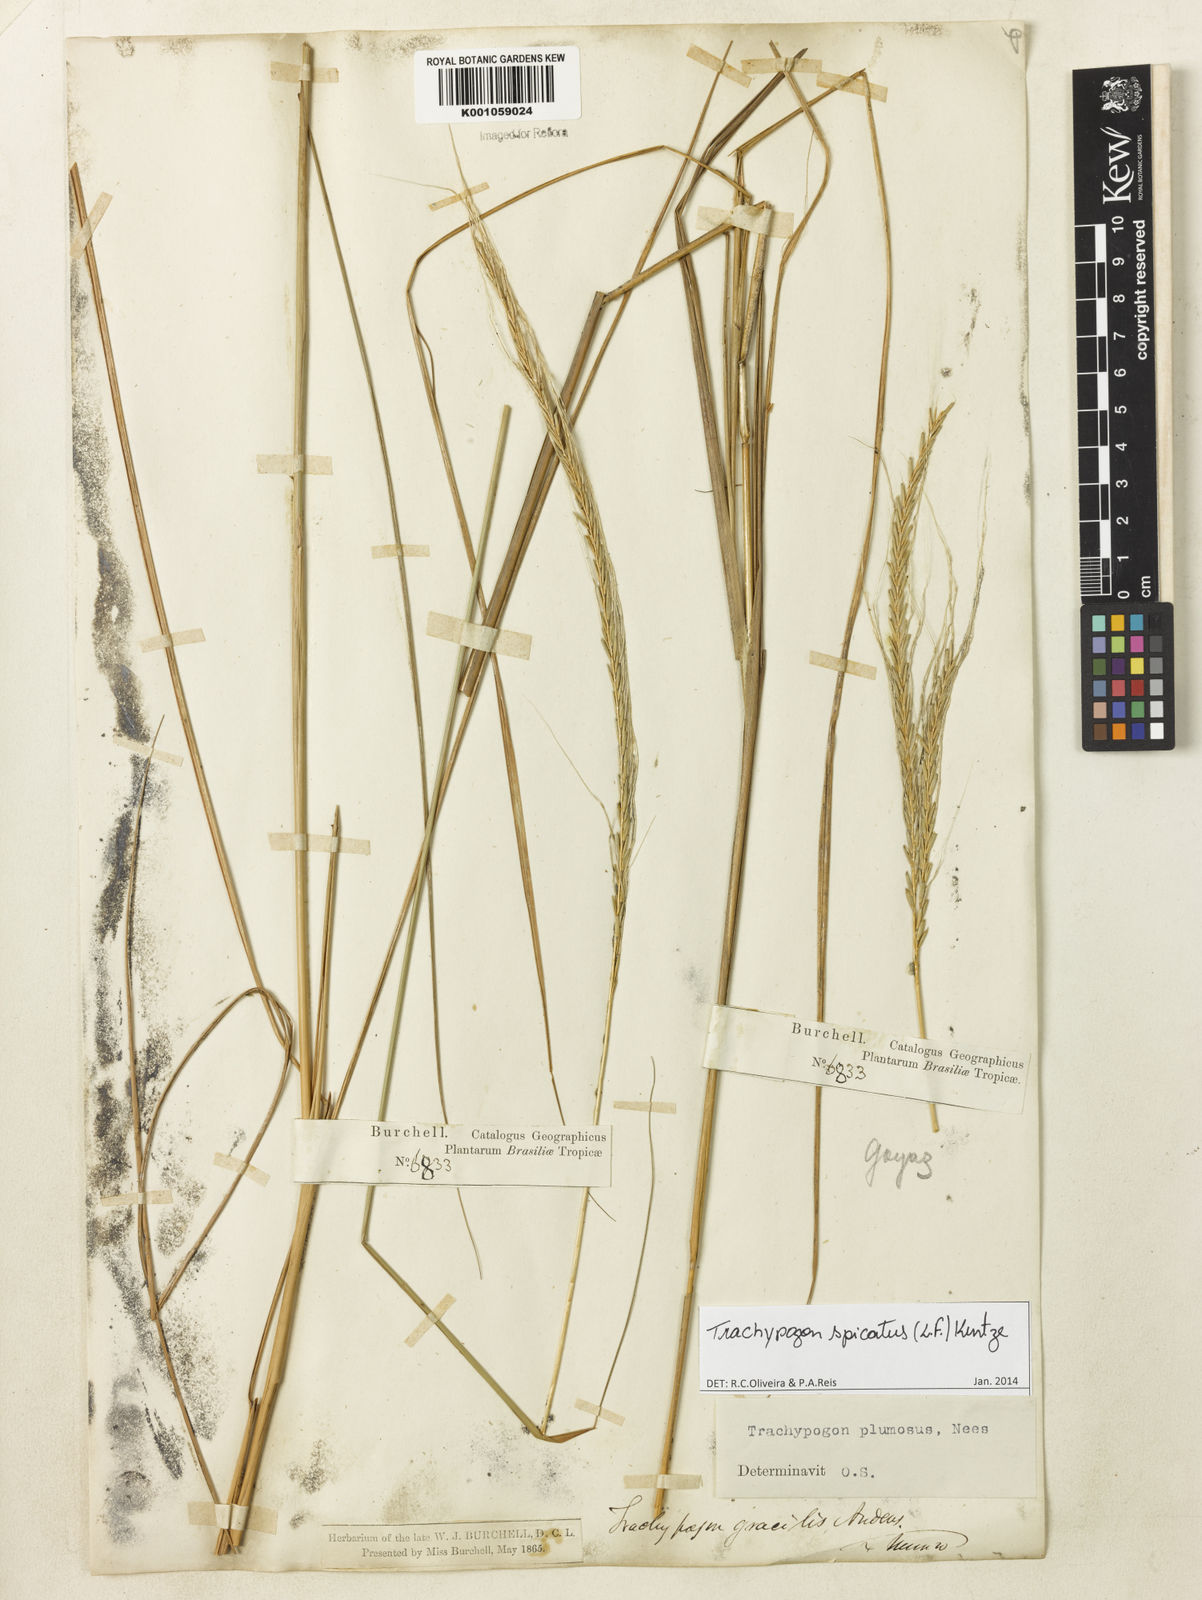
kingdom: Plantae
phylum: Tracheophyta
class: Liliopsida
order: Poales
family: Poaceae
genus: Trachypogon
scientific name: Trachypogon spicatus
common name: Crinkle-awn
